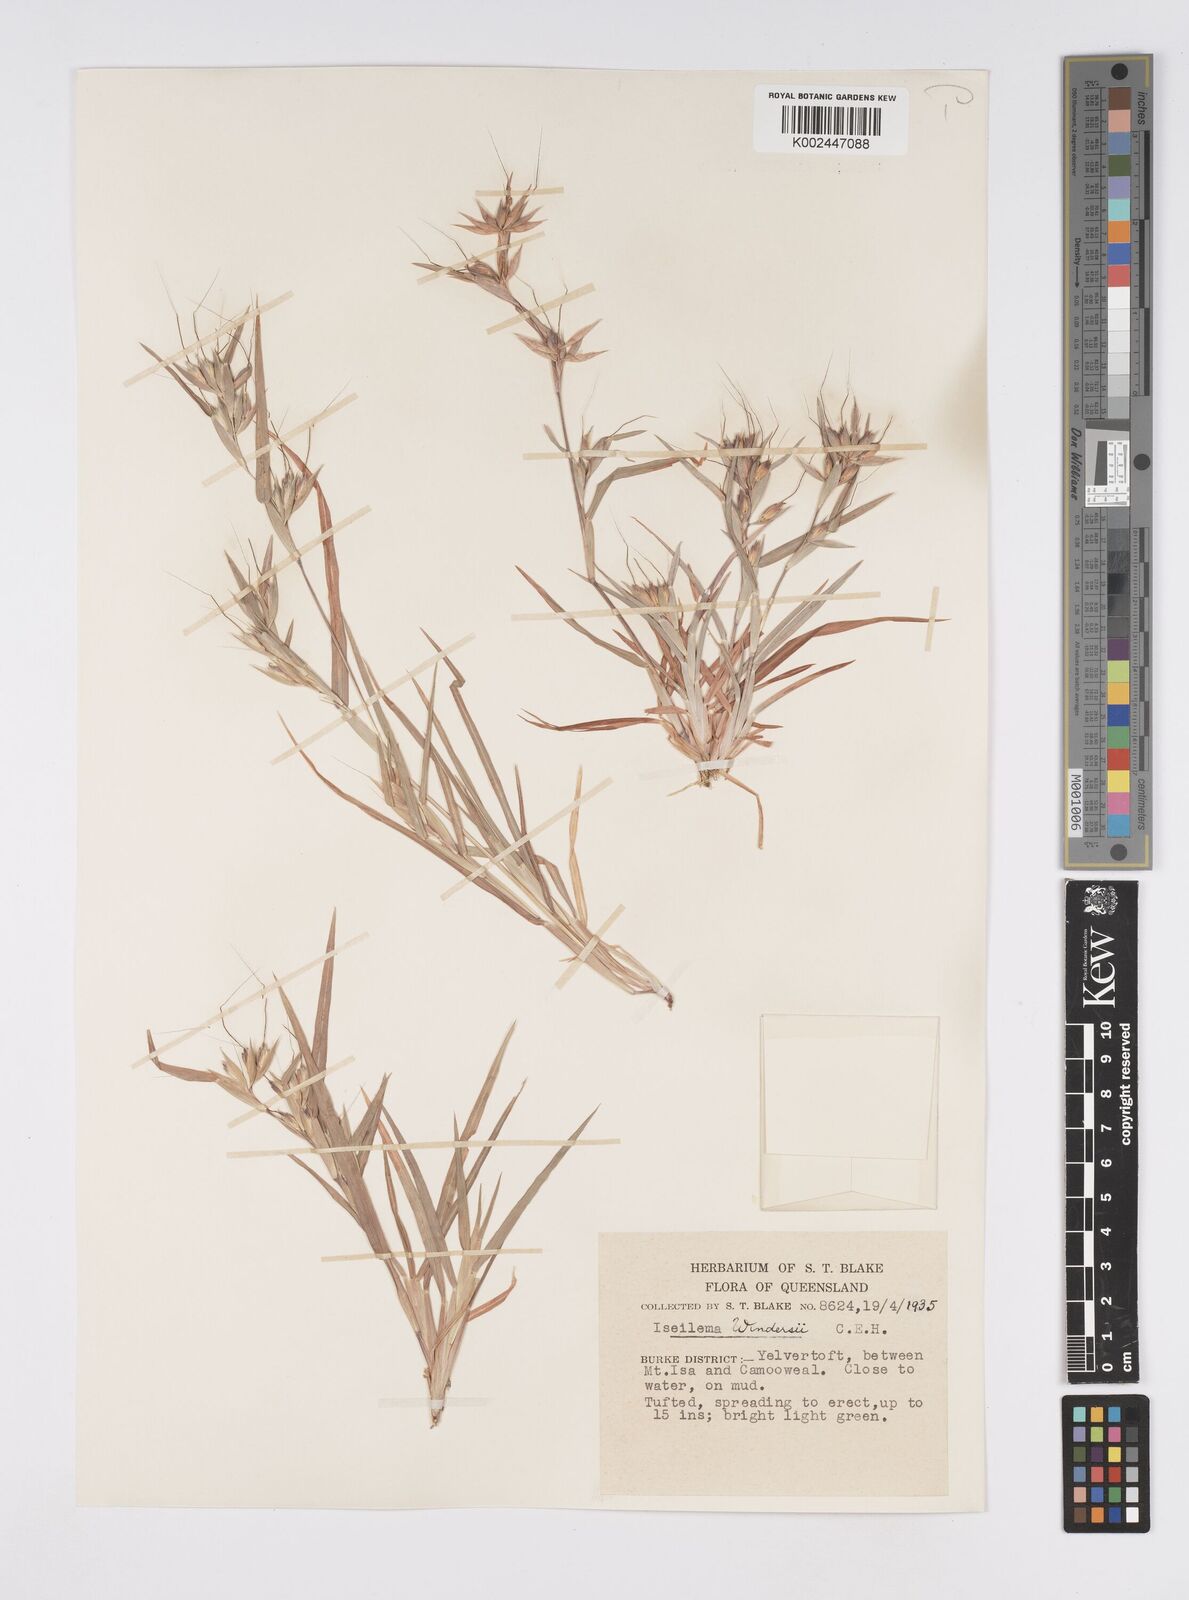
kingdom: Plantae
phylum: Tracheophyta
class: Liliopsida
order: Poales
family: Poaceae
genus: Iseilema
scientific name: Iseilema windersii
